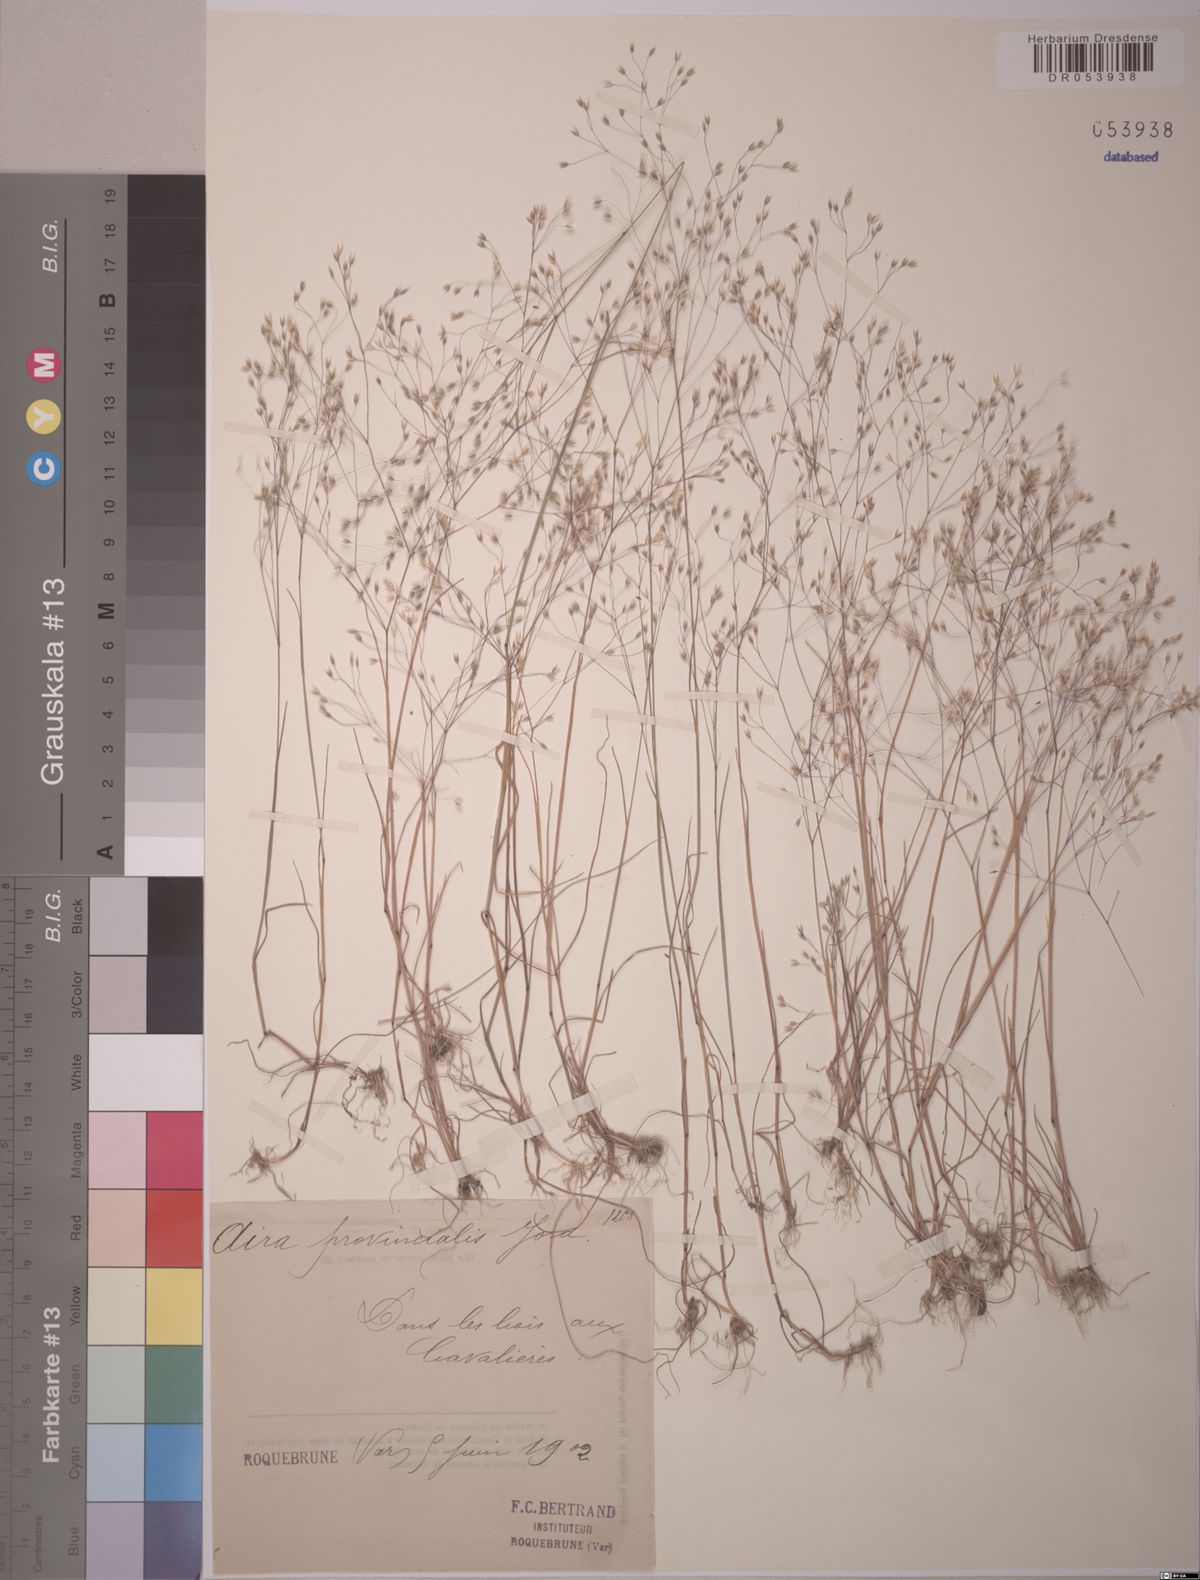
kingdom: Plantae
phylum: Tracheophyta
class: Liliopsida
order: Poales
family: Poaceae
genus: Aira
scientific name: Aira provincialis
